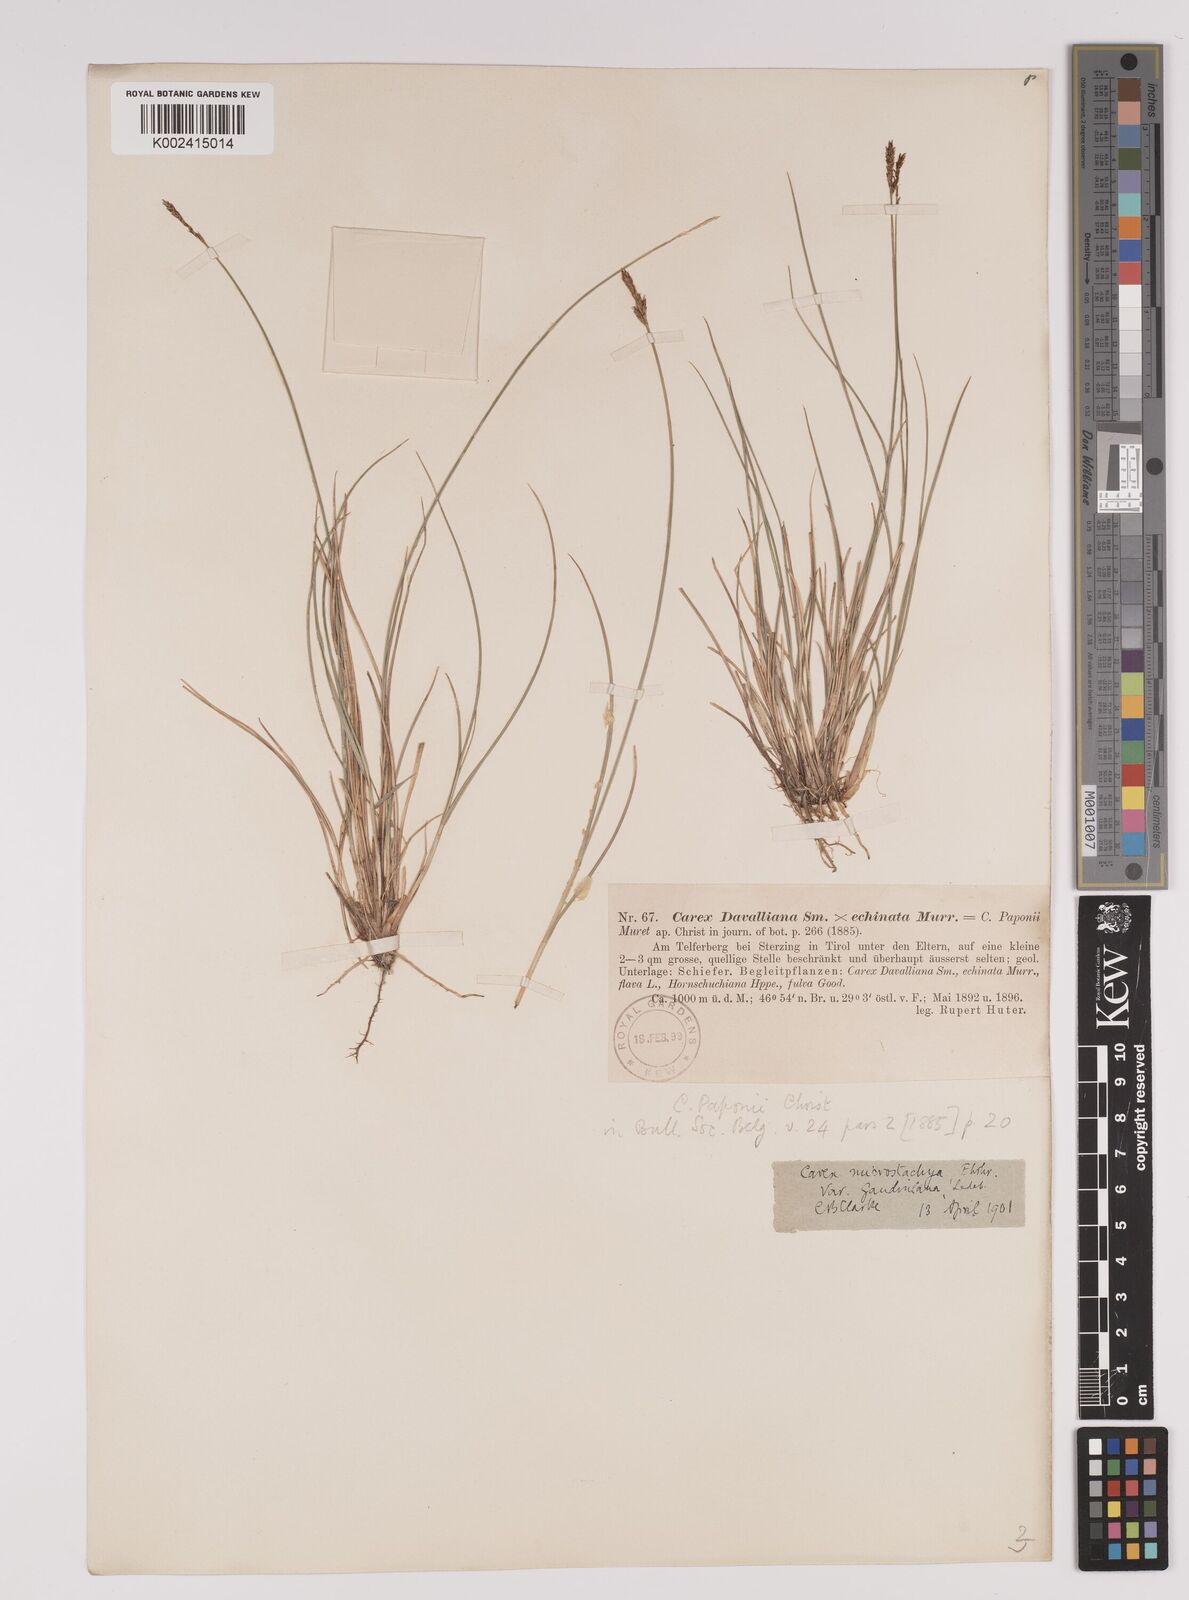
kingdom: Plantae
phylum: Tracheophyta
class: Liliopsida
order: Poales
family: Cyperaceae
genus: Carex
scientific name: Carex dioica
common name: Dioecious sedge
